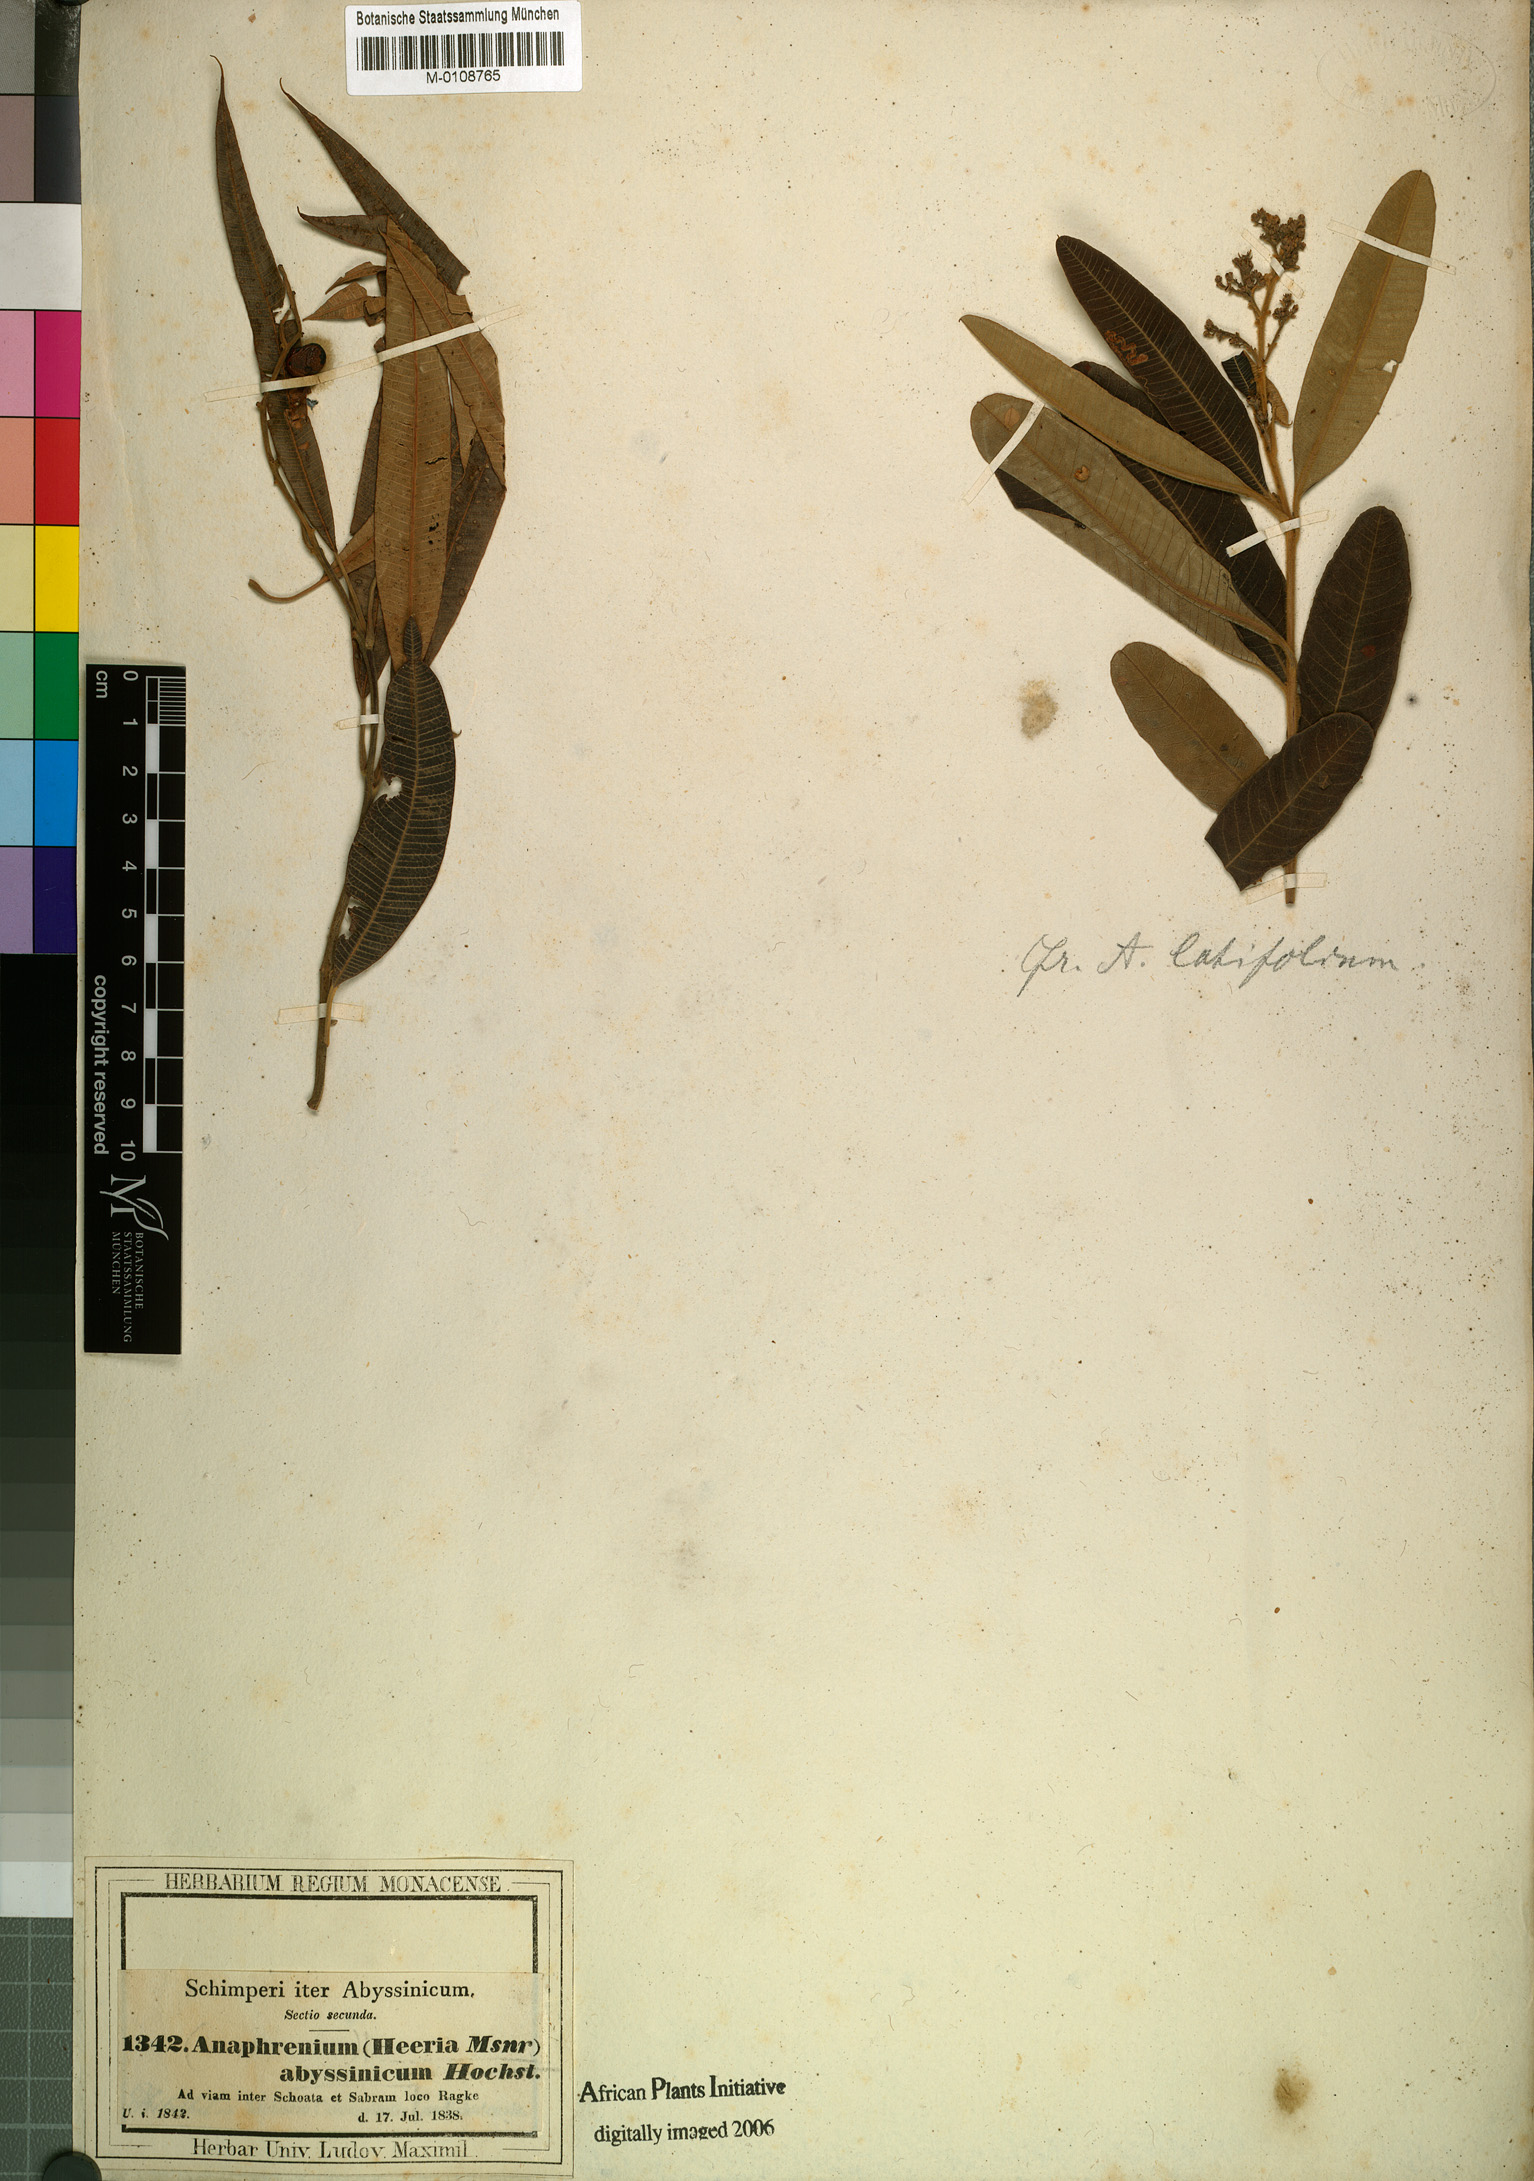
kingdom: Plantae
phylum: Tracheophyta
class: Magnoliopsida
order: Sapindales
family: Anacardiaceae
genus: Ozoroa
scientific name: Ozoroa insignis
